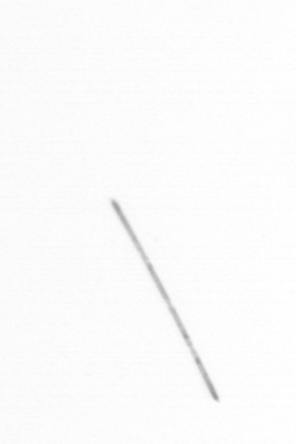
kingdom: Chromista
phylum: Ochrophyta
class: Bacillariophyceae
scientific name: Bacillariophyceae
